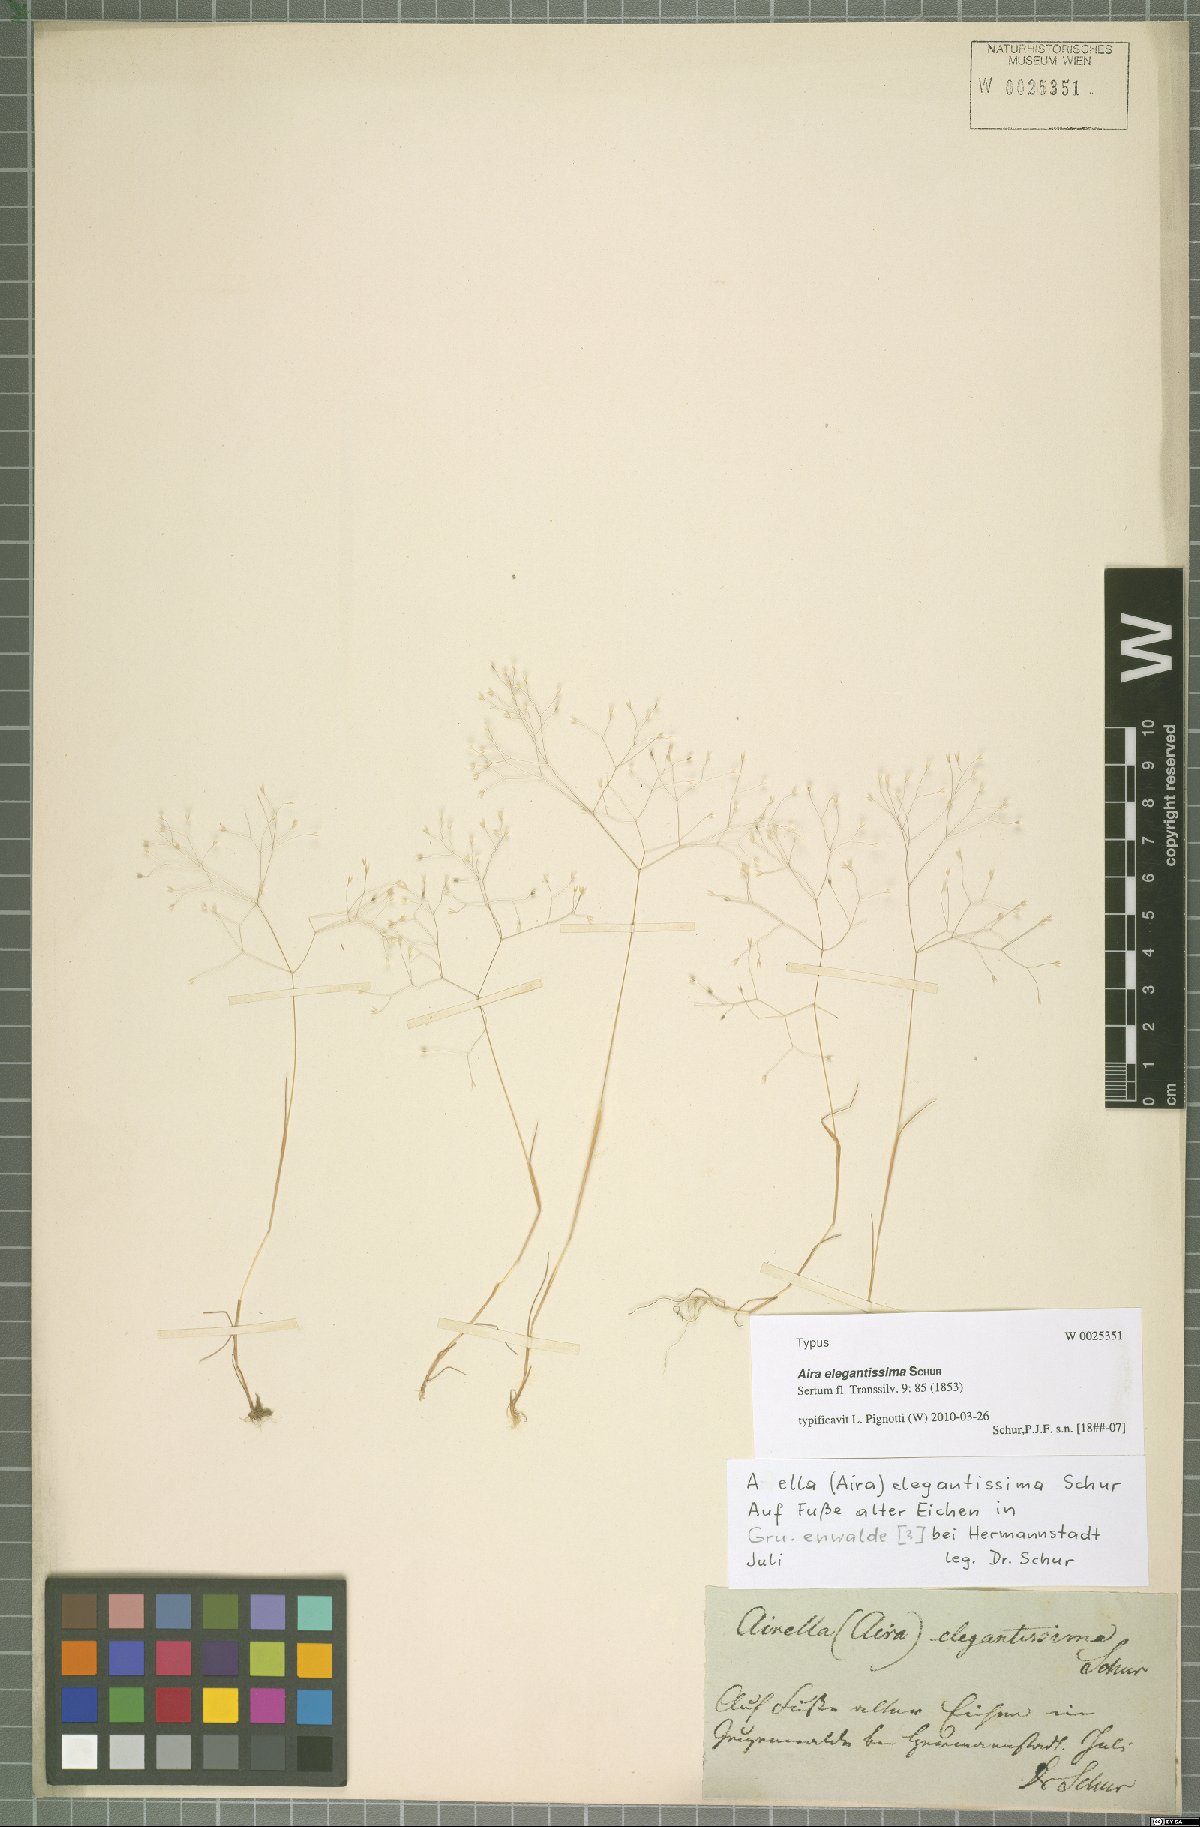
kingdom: Plantae
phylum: Tracheophyta
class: Liliopsida
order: Poales
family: Poaceae
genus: Aira
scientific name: Aira elegans
